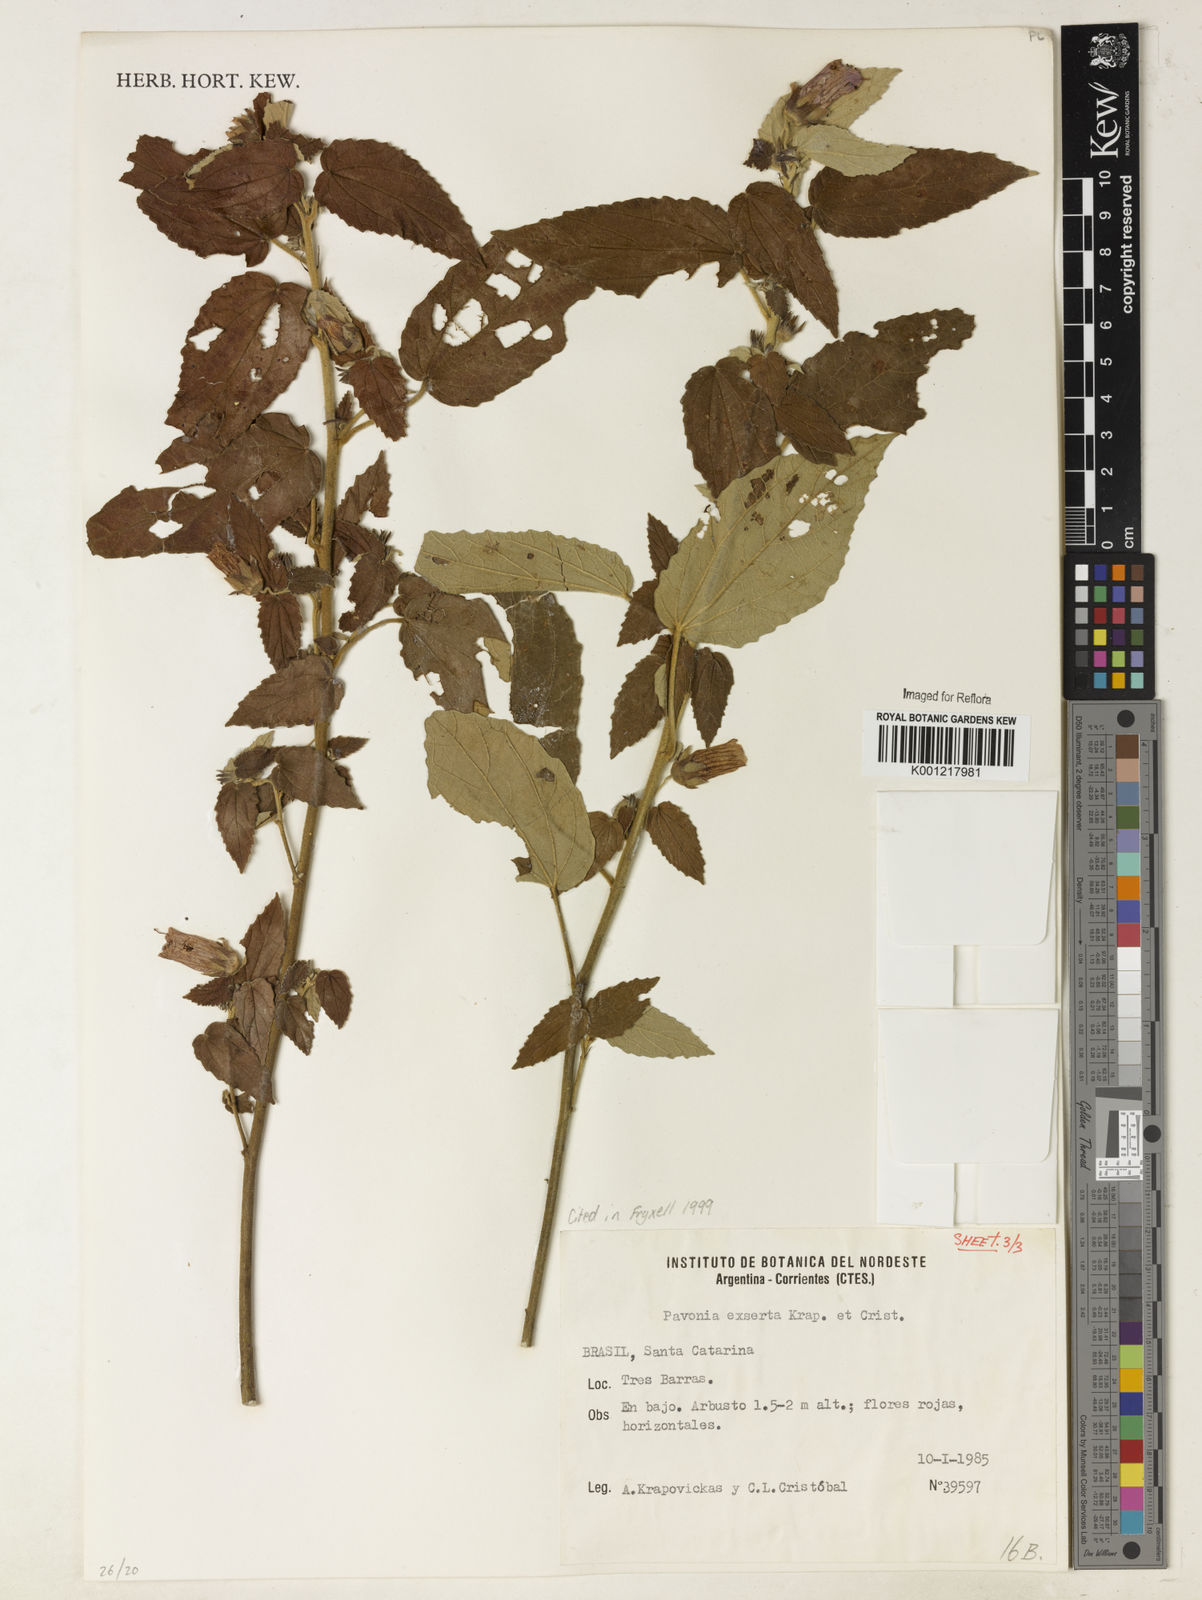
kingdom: Plantae
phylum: Tracheophyta
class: Magnoliopsida
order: Malvales
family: Malvaceae
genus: Pavonia
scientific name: Pavonia commutata
